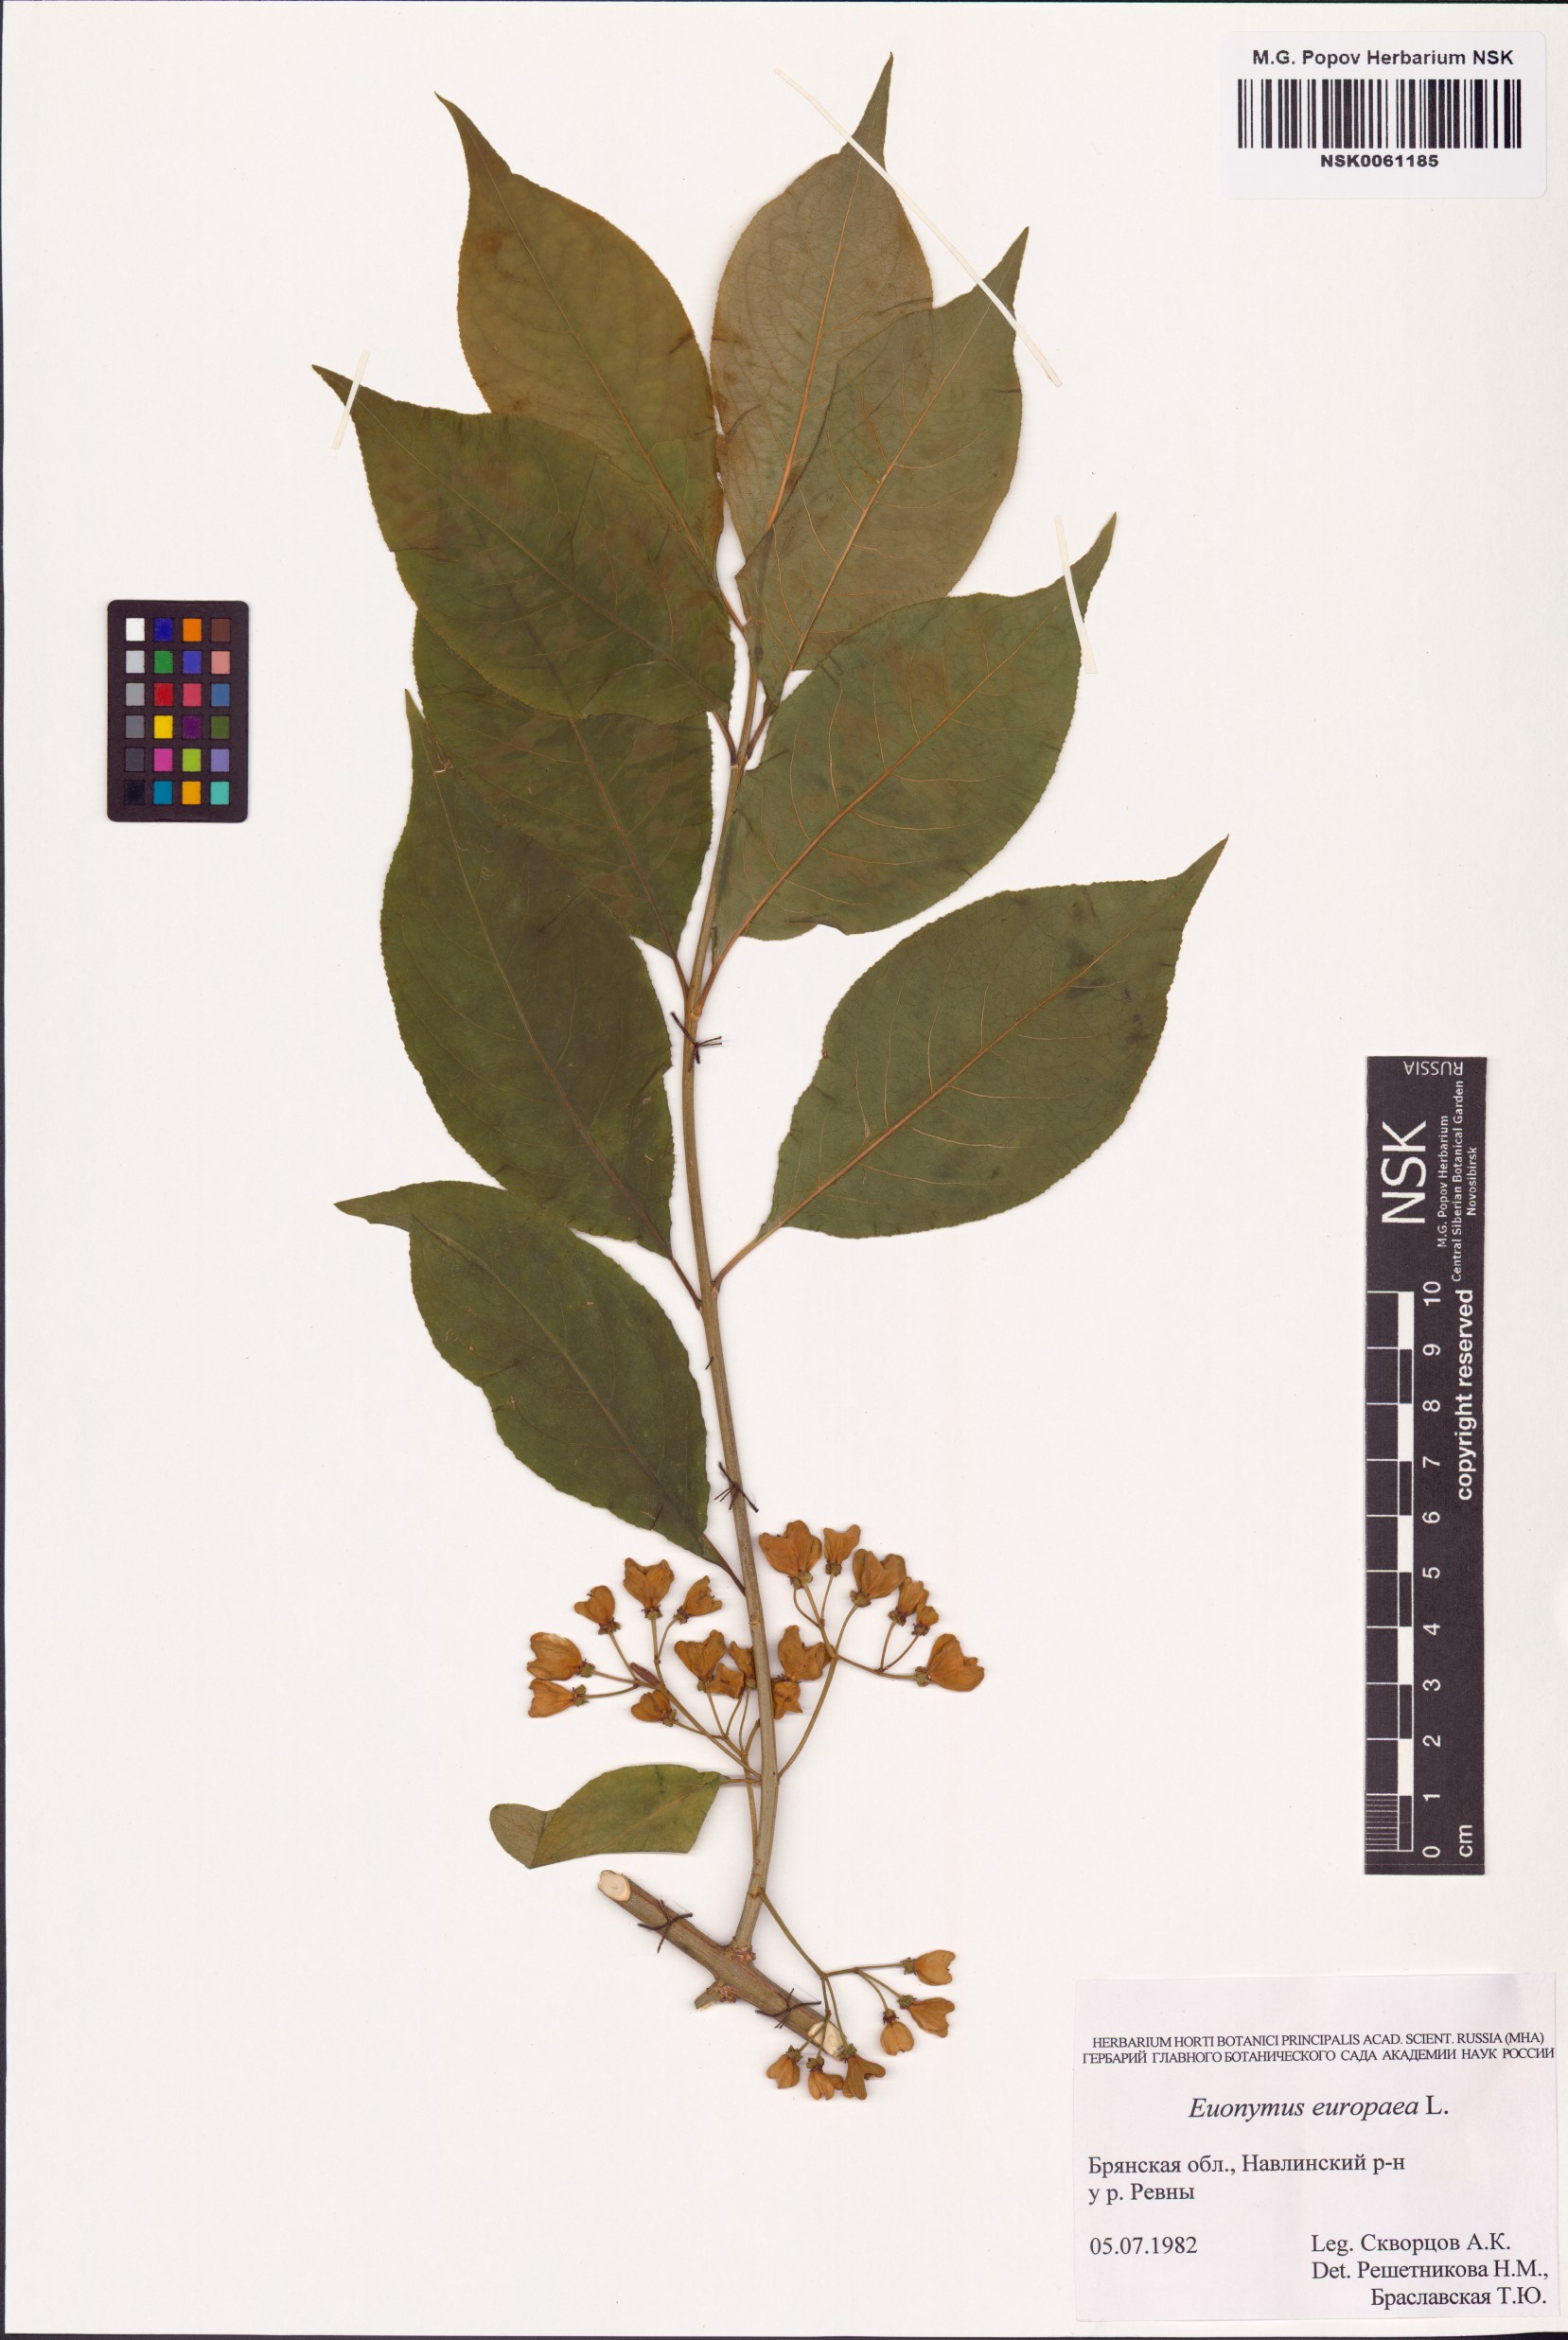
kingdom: Plantae
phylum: Tracheophyta
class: Magnoliopsida
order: Celastrales
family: Celastraceae
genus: Euonymus
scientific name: Euonymus europaeus
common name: Spindle
